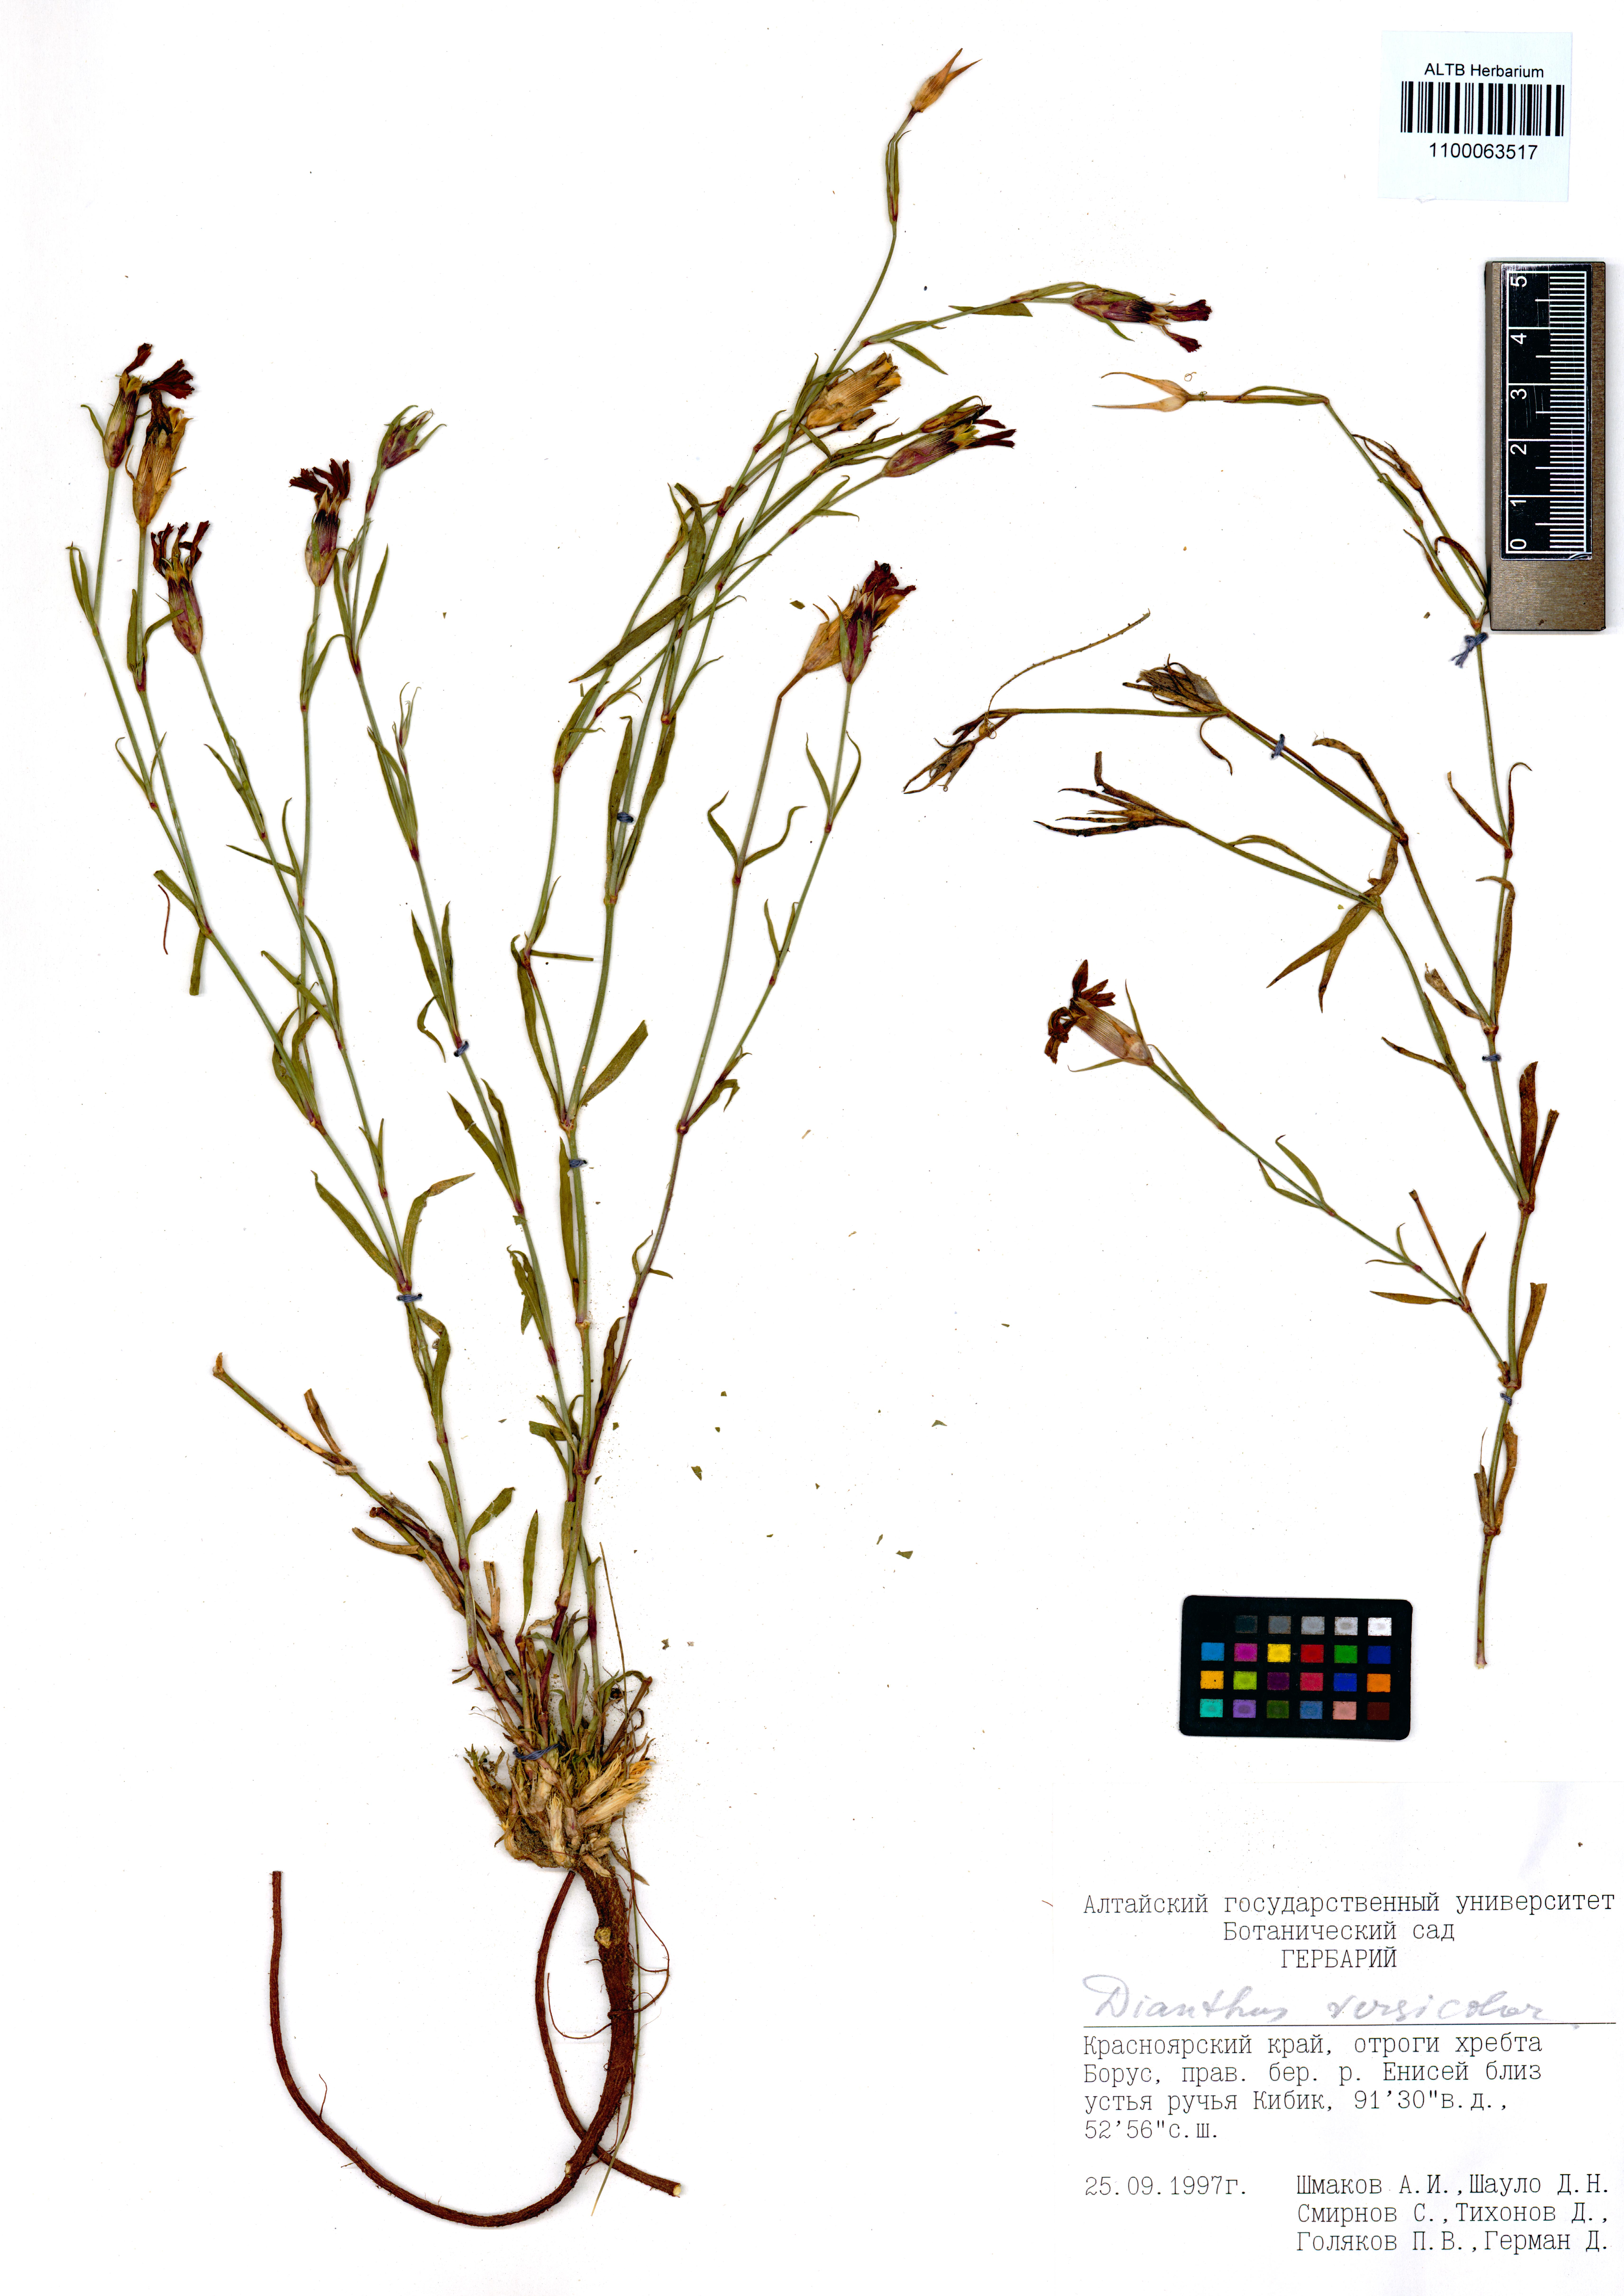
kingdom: Plantae
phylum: Tracheophyta
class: Magnoliopsida
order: Caryophyllales
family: Caryophyllaceae
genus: Dianthus
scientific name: Dianthus chinensis
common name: Rainbow pink
